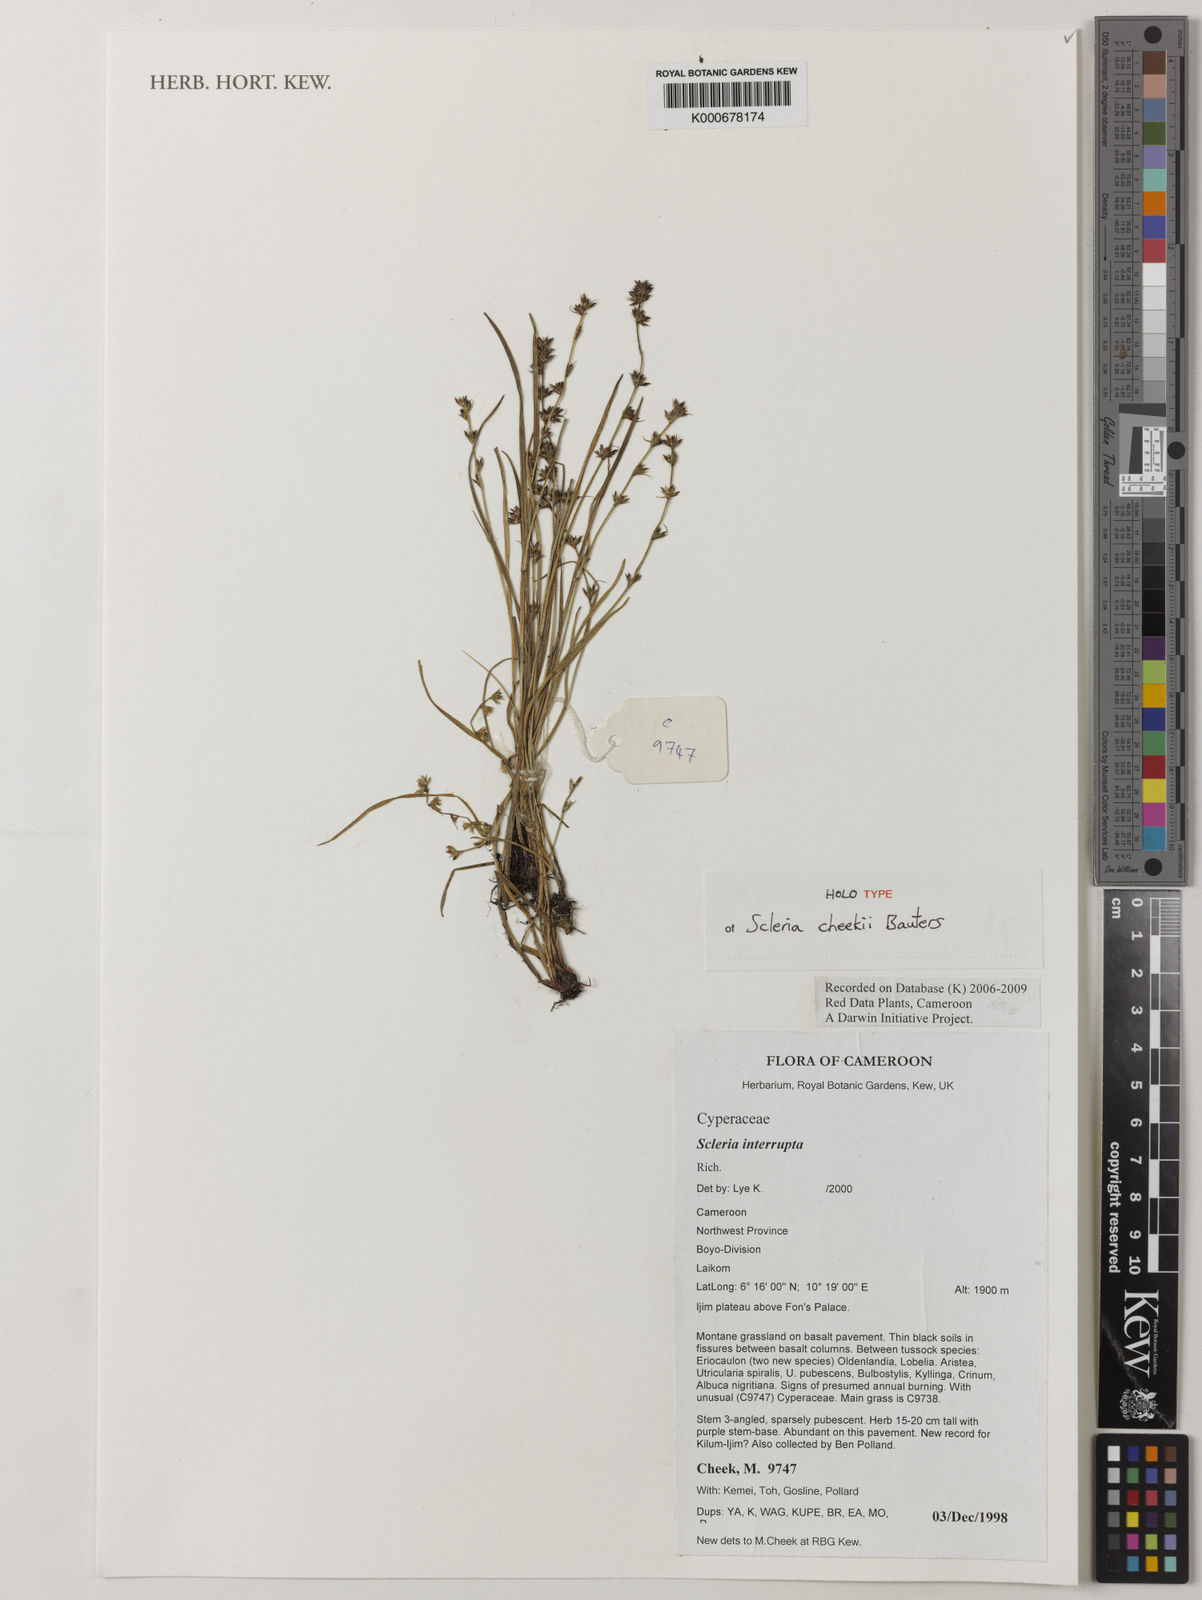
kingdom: Plantae
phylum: Tracheophyta
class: Liliopsida
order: Poales
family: Cyperaceae
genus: Scleria
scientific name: Scleria cheekii
